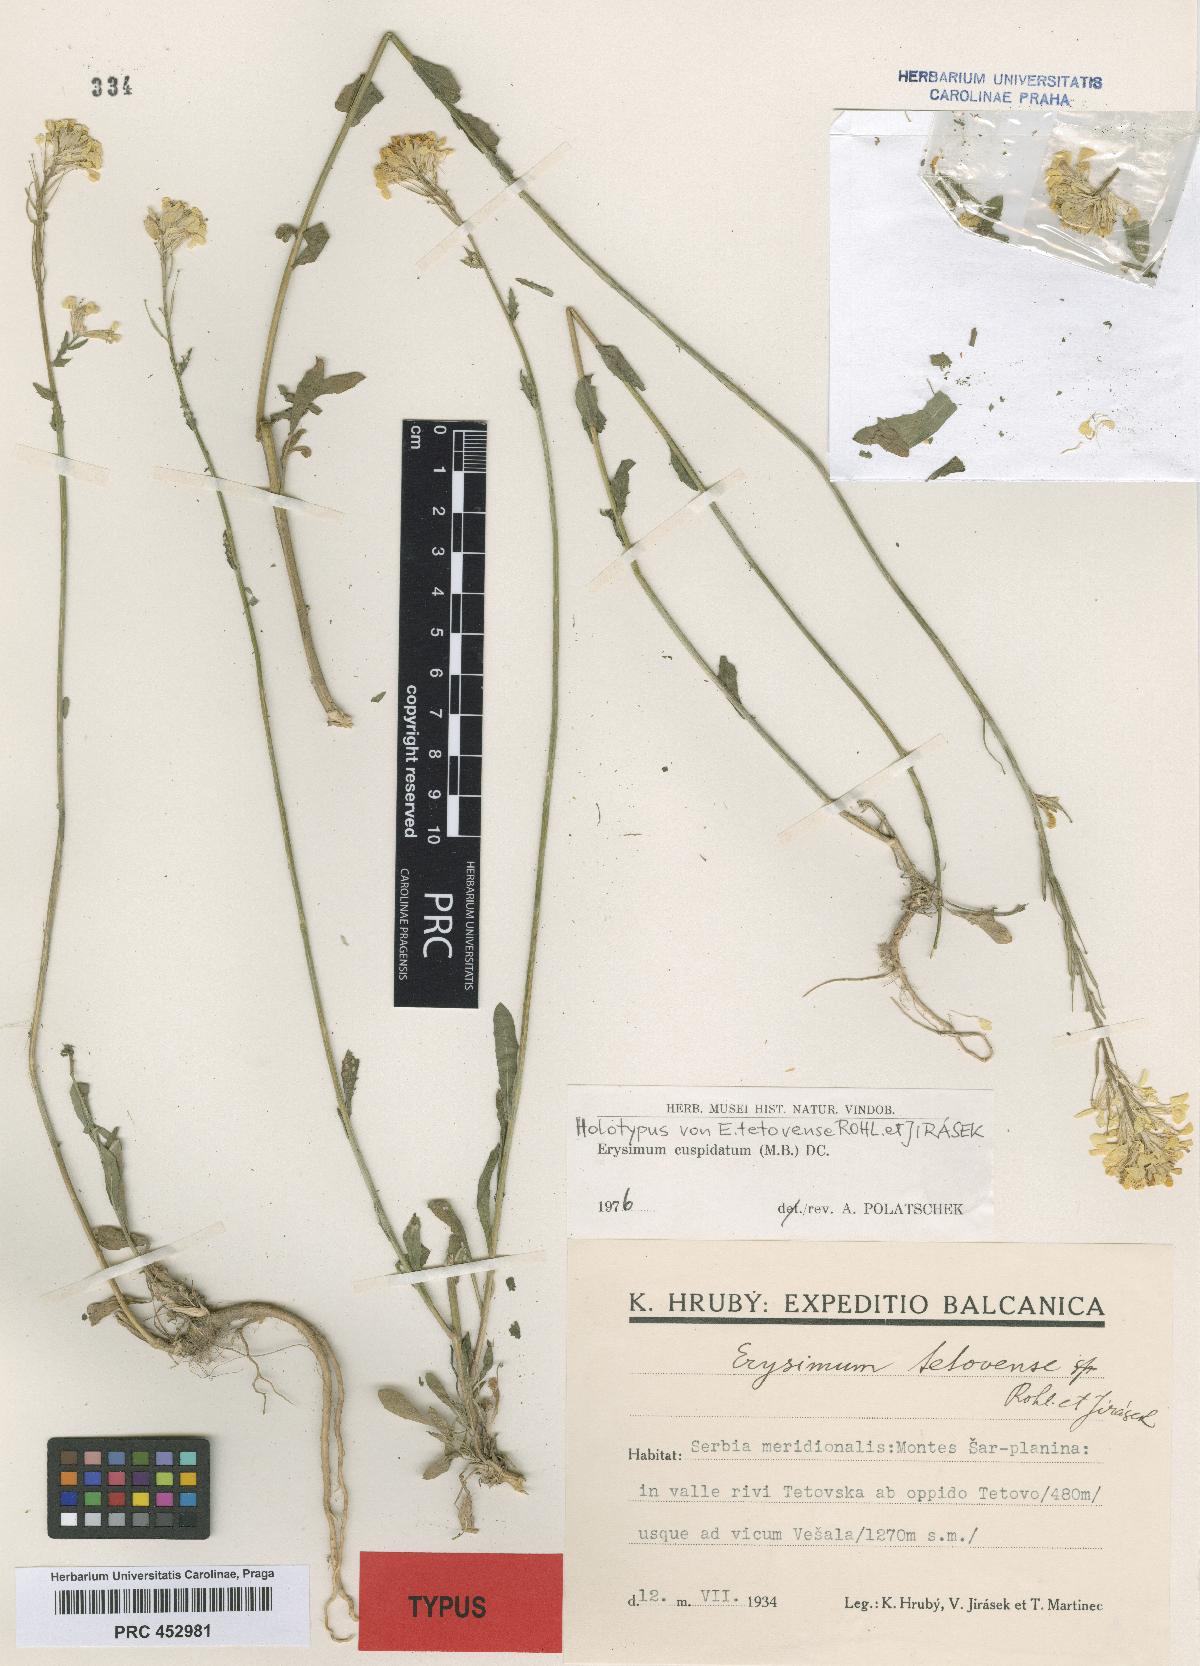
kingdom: Plantae
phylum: Tracheophyta
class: Magnoliopsida
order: Brassicales
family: Brassicaceae
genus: Erysimum
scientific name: Erysimum cuspidatum
